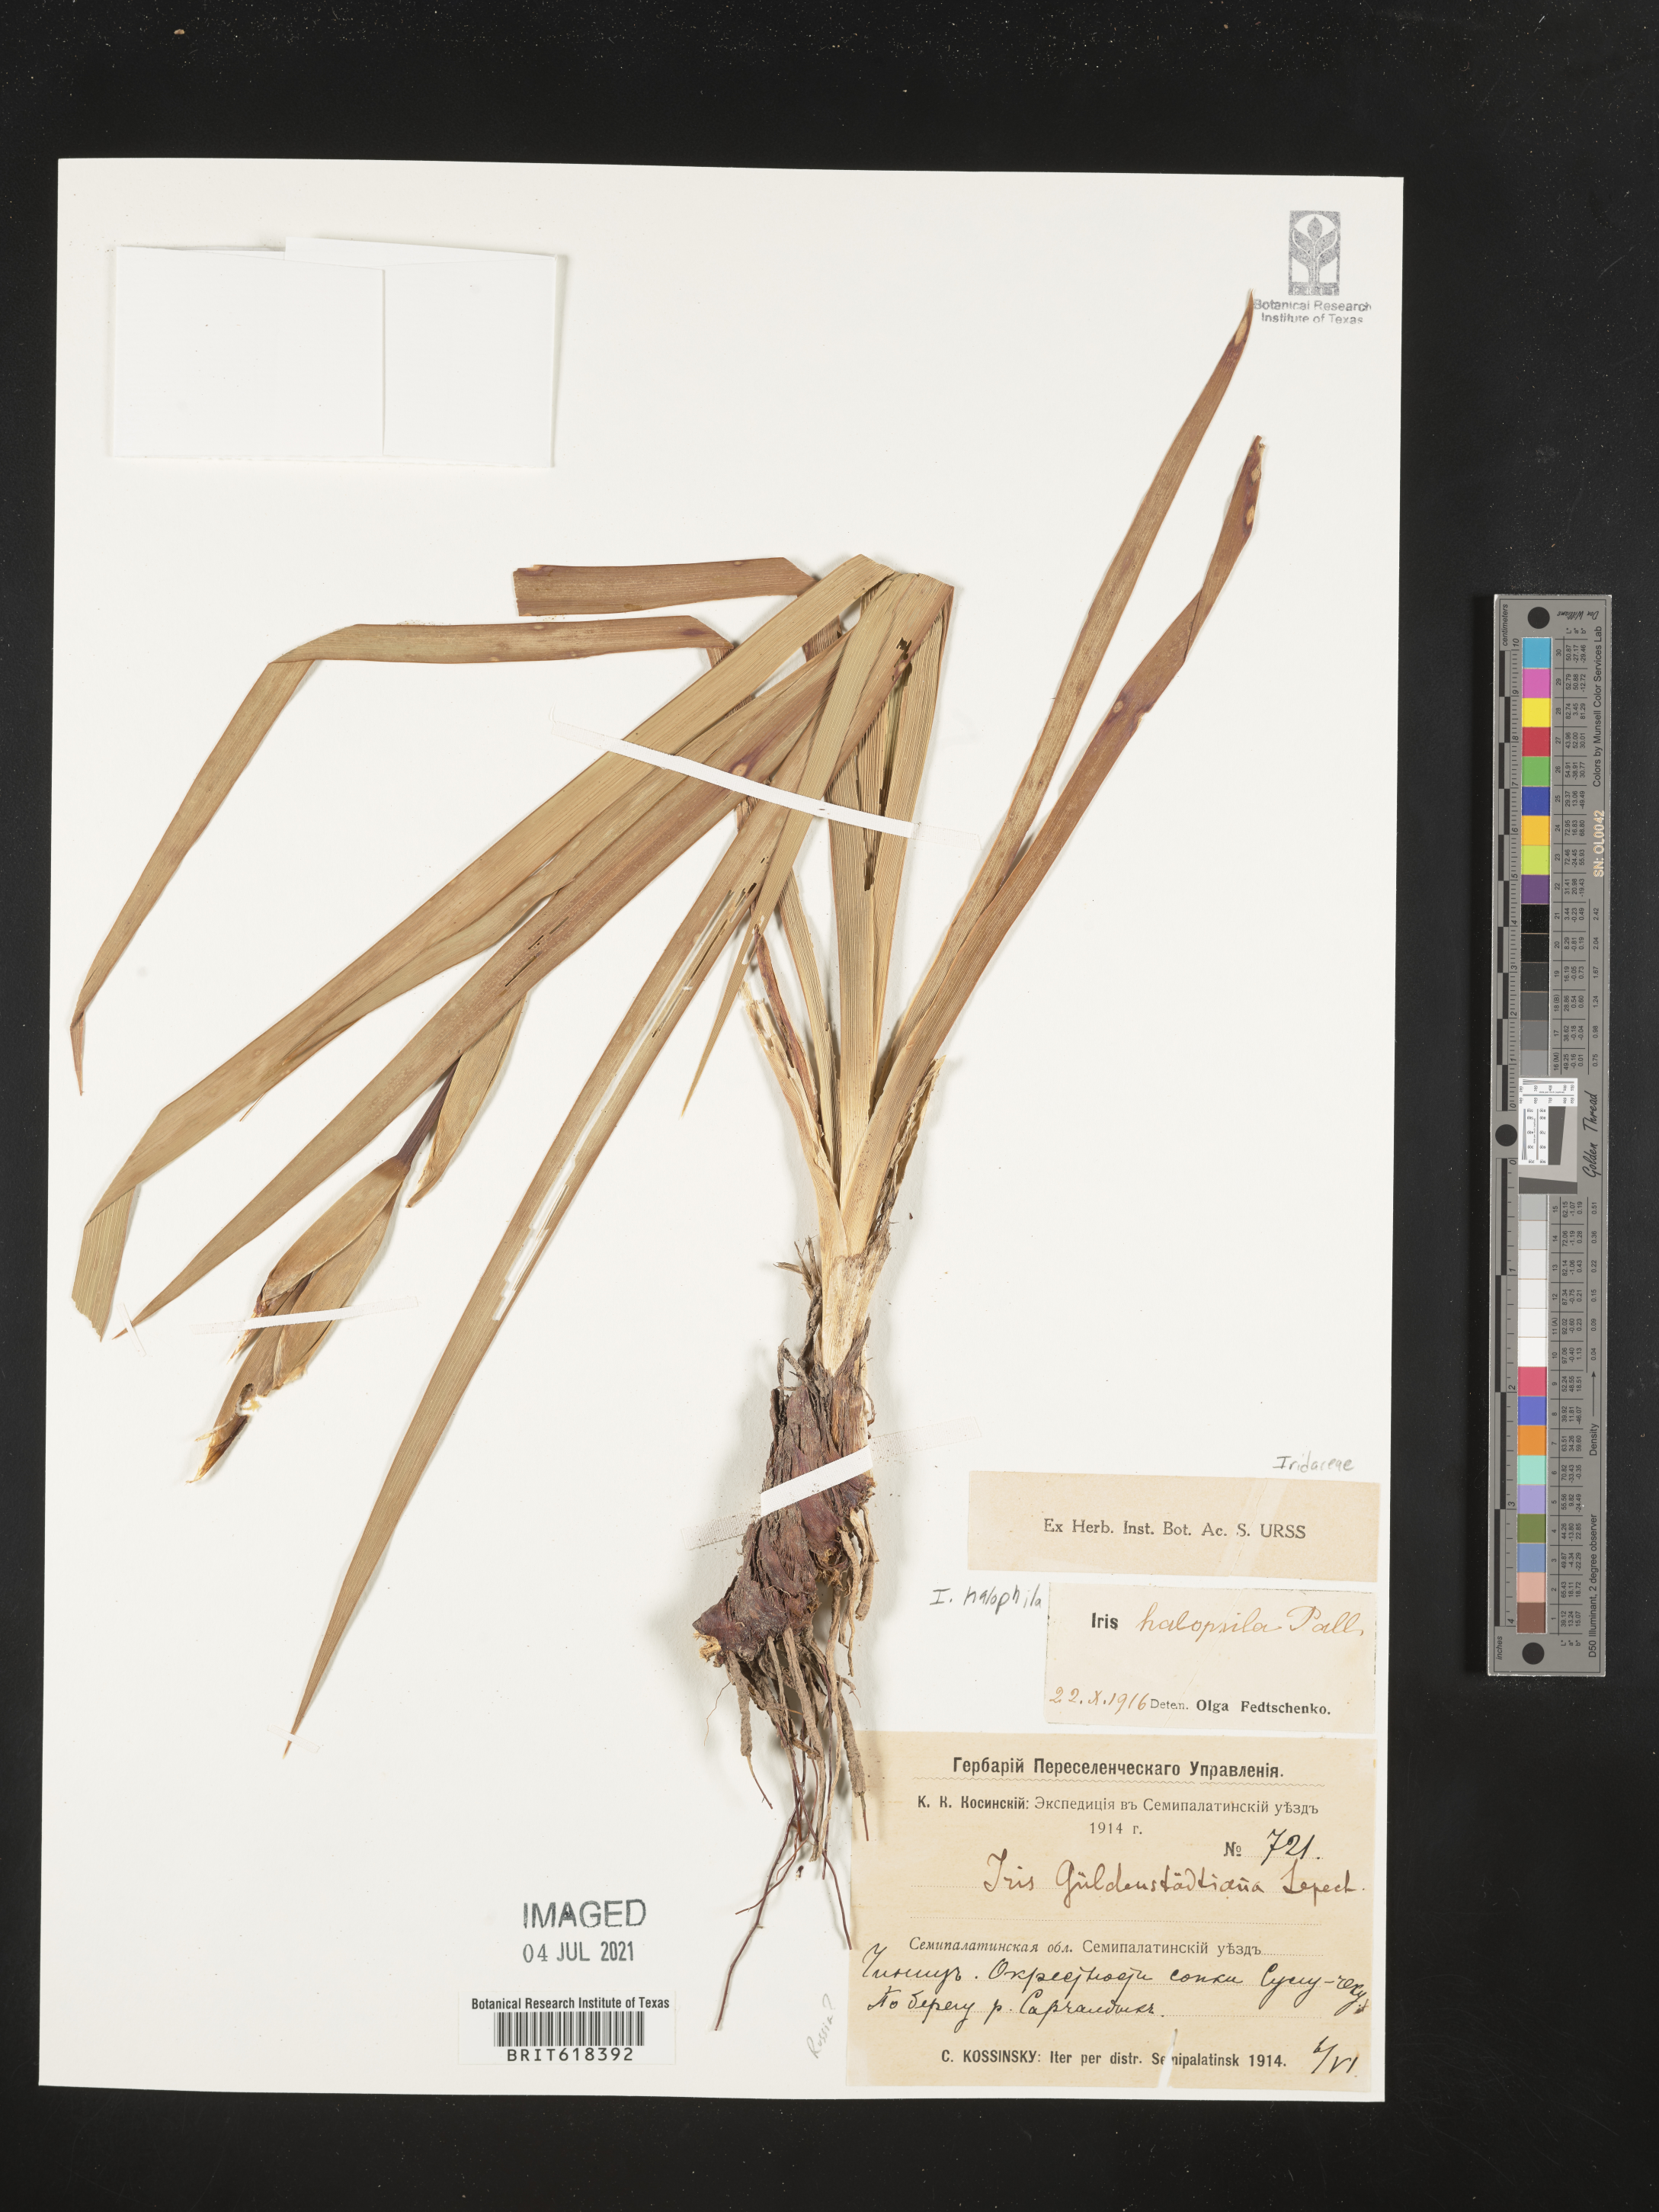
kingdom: Plantae
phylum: Tracheophyta
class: Liliopsida
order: Asparagales
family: Iridaceae
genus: Iris
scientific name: Iris halophila
